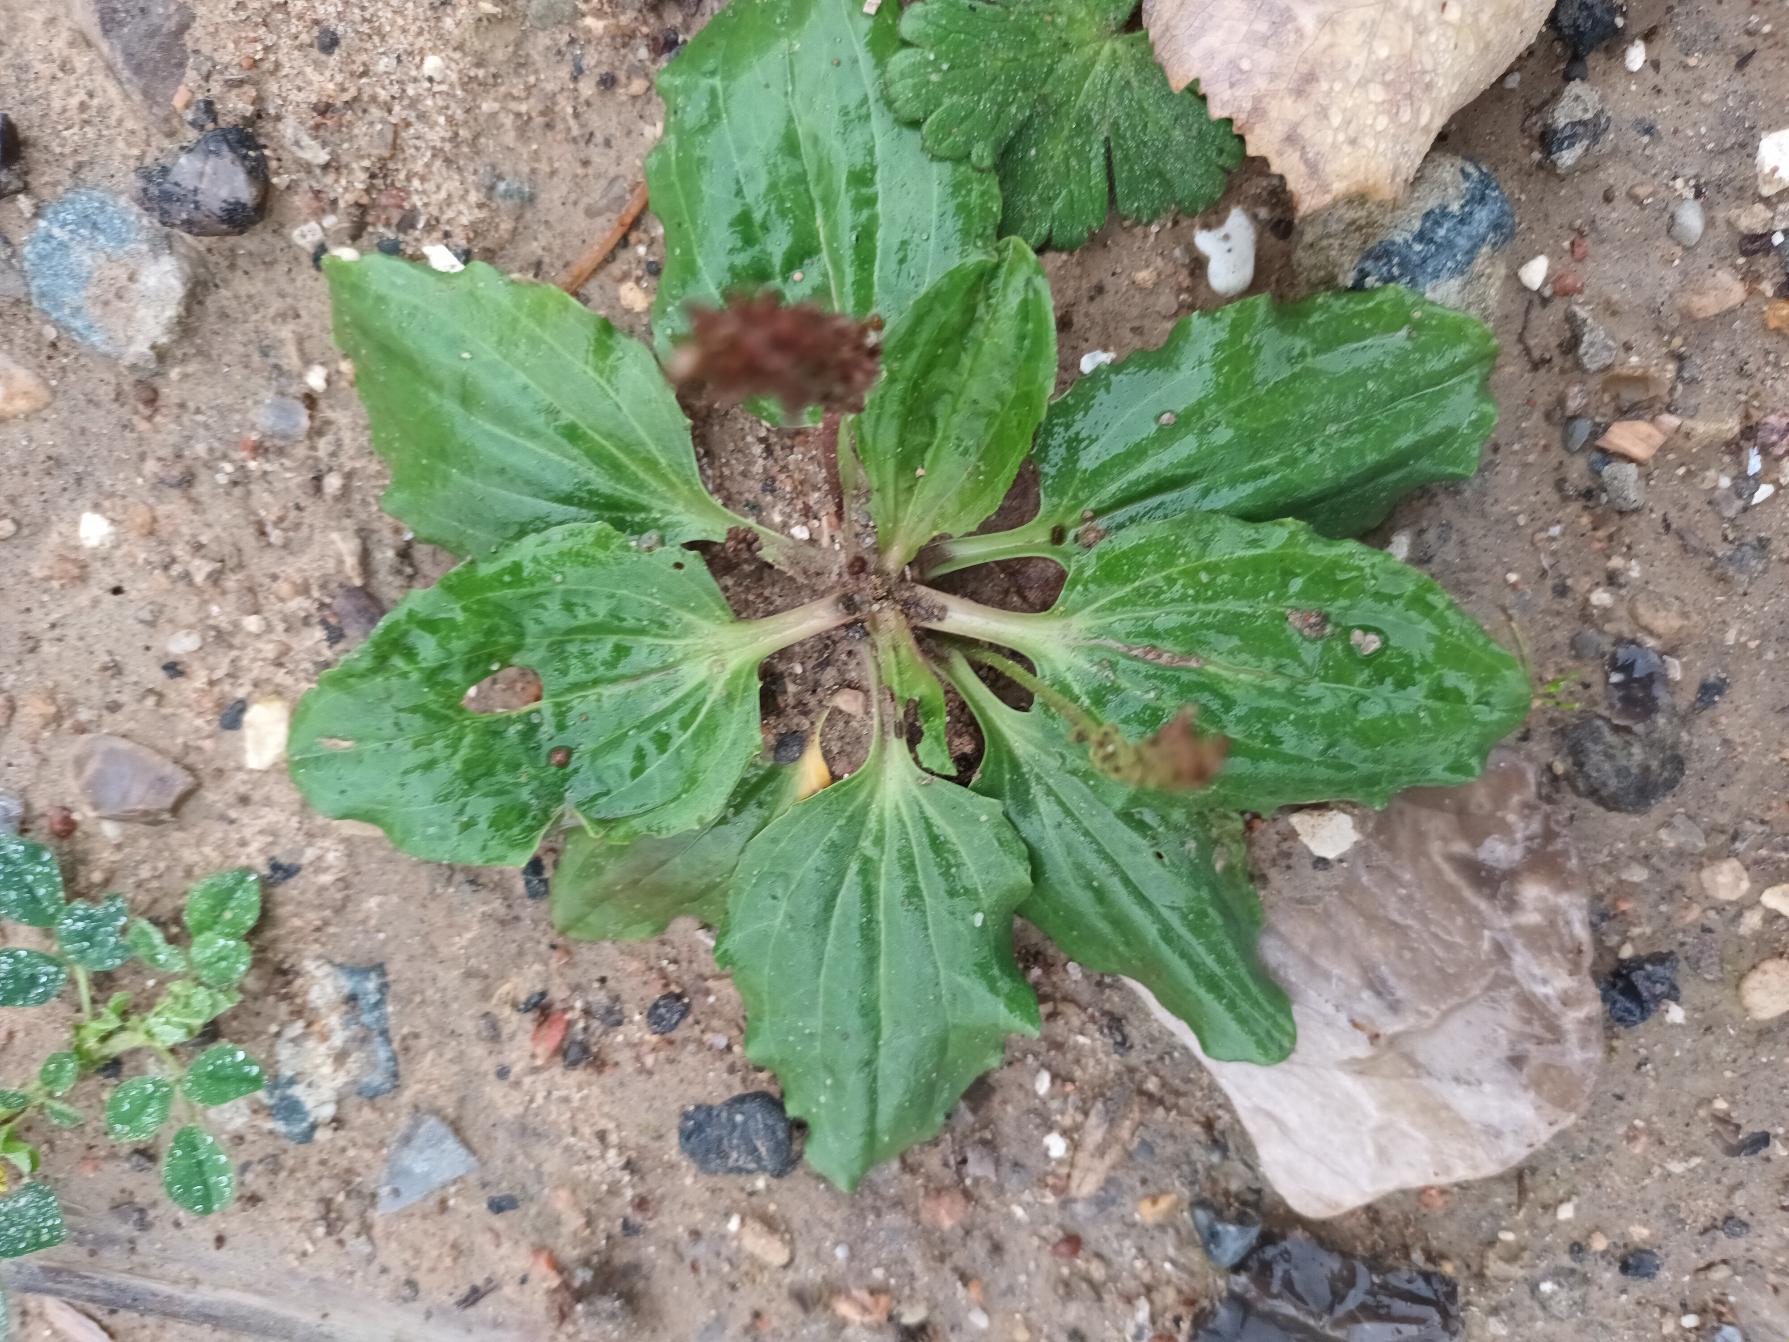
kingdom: Plantae
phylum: Tracheophyta
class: Magnoliopsida
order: Lamiales
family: Plantaginaceae
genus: Plantago
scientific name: Plantago major
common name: Glat vejbred
